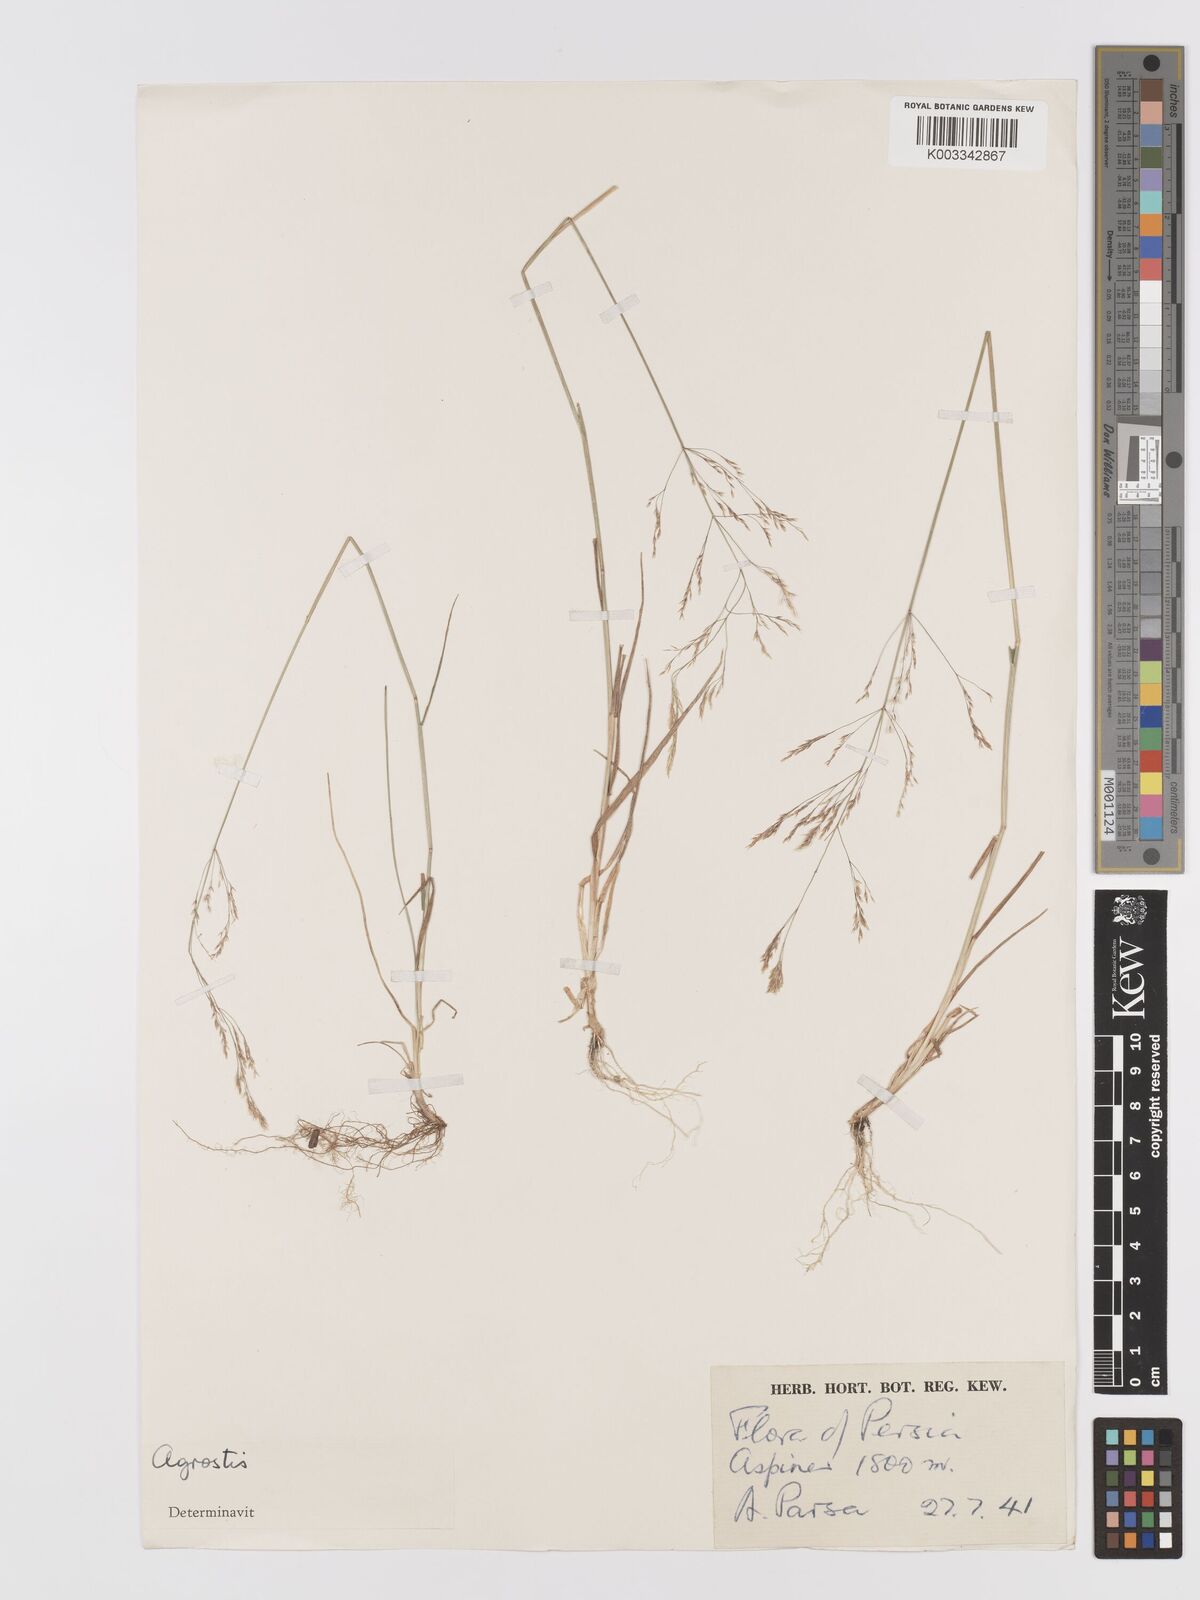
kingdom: Plantae
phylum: Tracheophyta
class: Liliopsida
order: Poales
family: Poaceae
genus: Agrostis
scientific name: Agrostis
